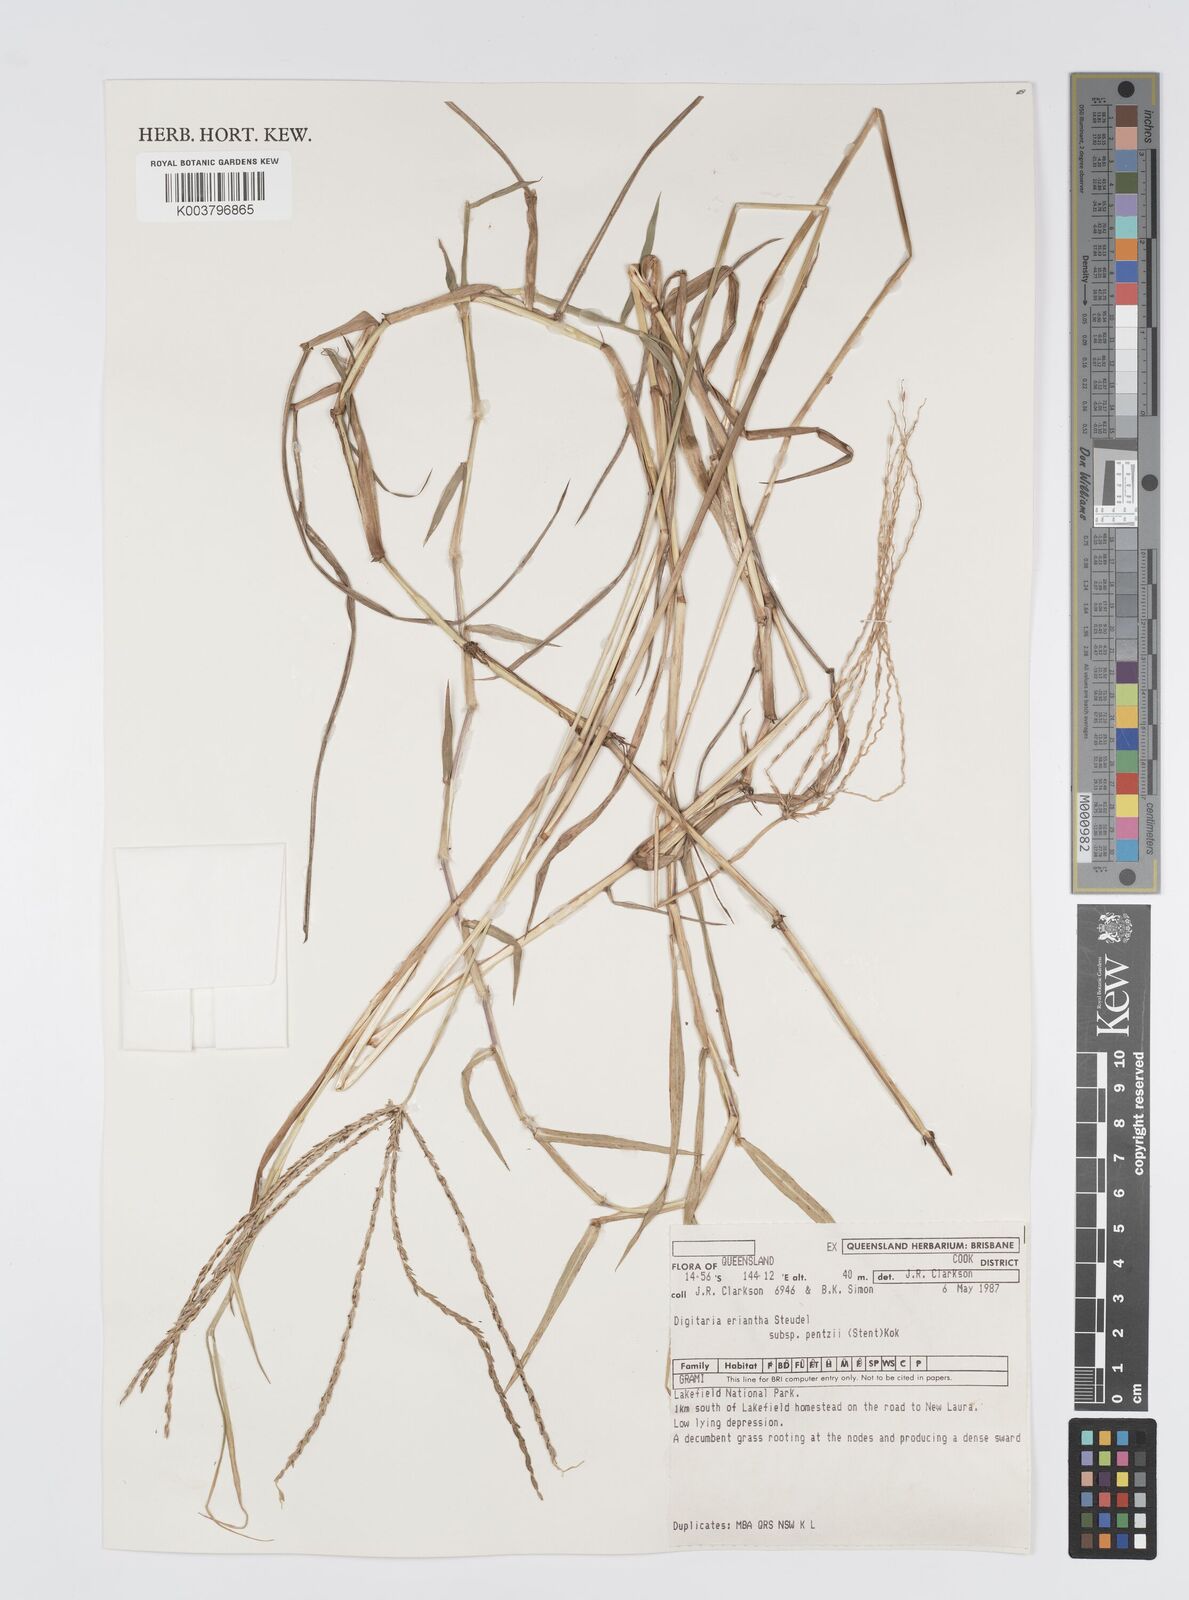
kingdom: Plantae
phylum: Tracheophyta
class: Liliopsida
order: Poales
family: Poaceae
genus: Digitaria
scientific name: Digitaria eriantha
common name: Digitgrass
